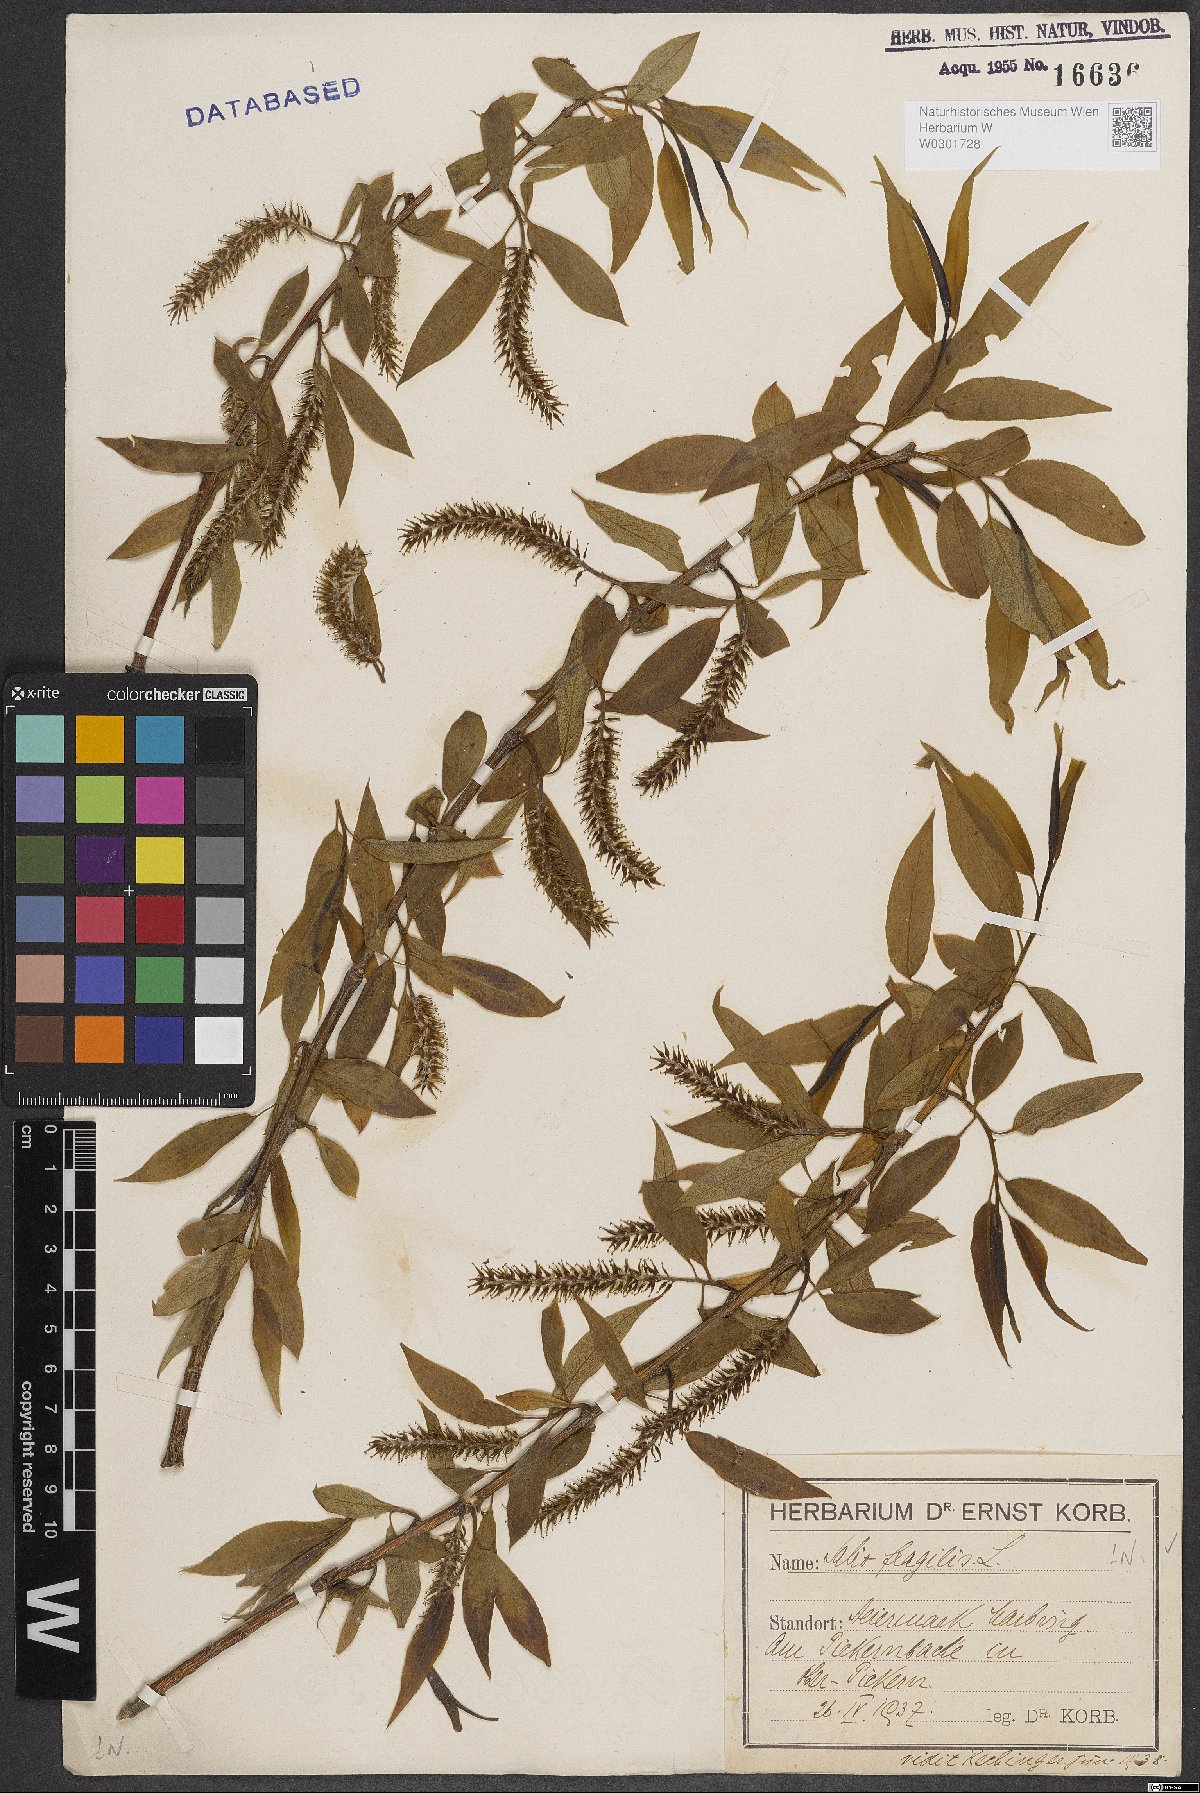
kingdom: Plantae
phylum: Tracheophyta
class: Magnoliopsida
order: Malpighiales
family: Salicaceae
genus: Salix
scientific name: Salix fragilis
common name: Crack willow
